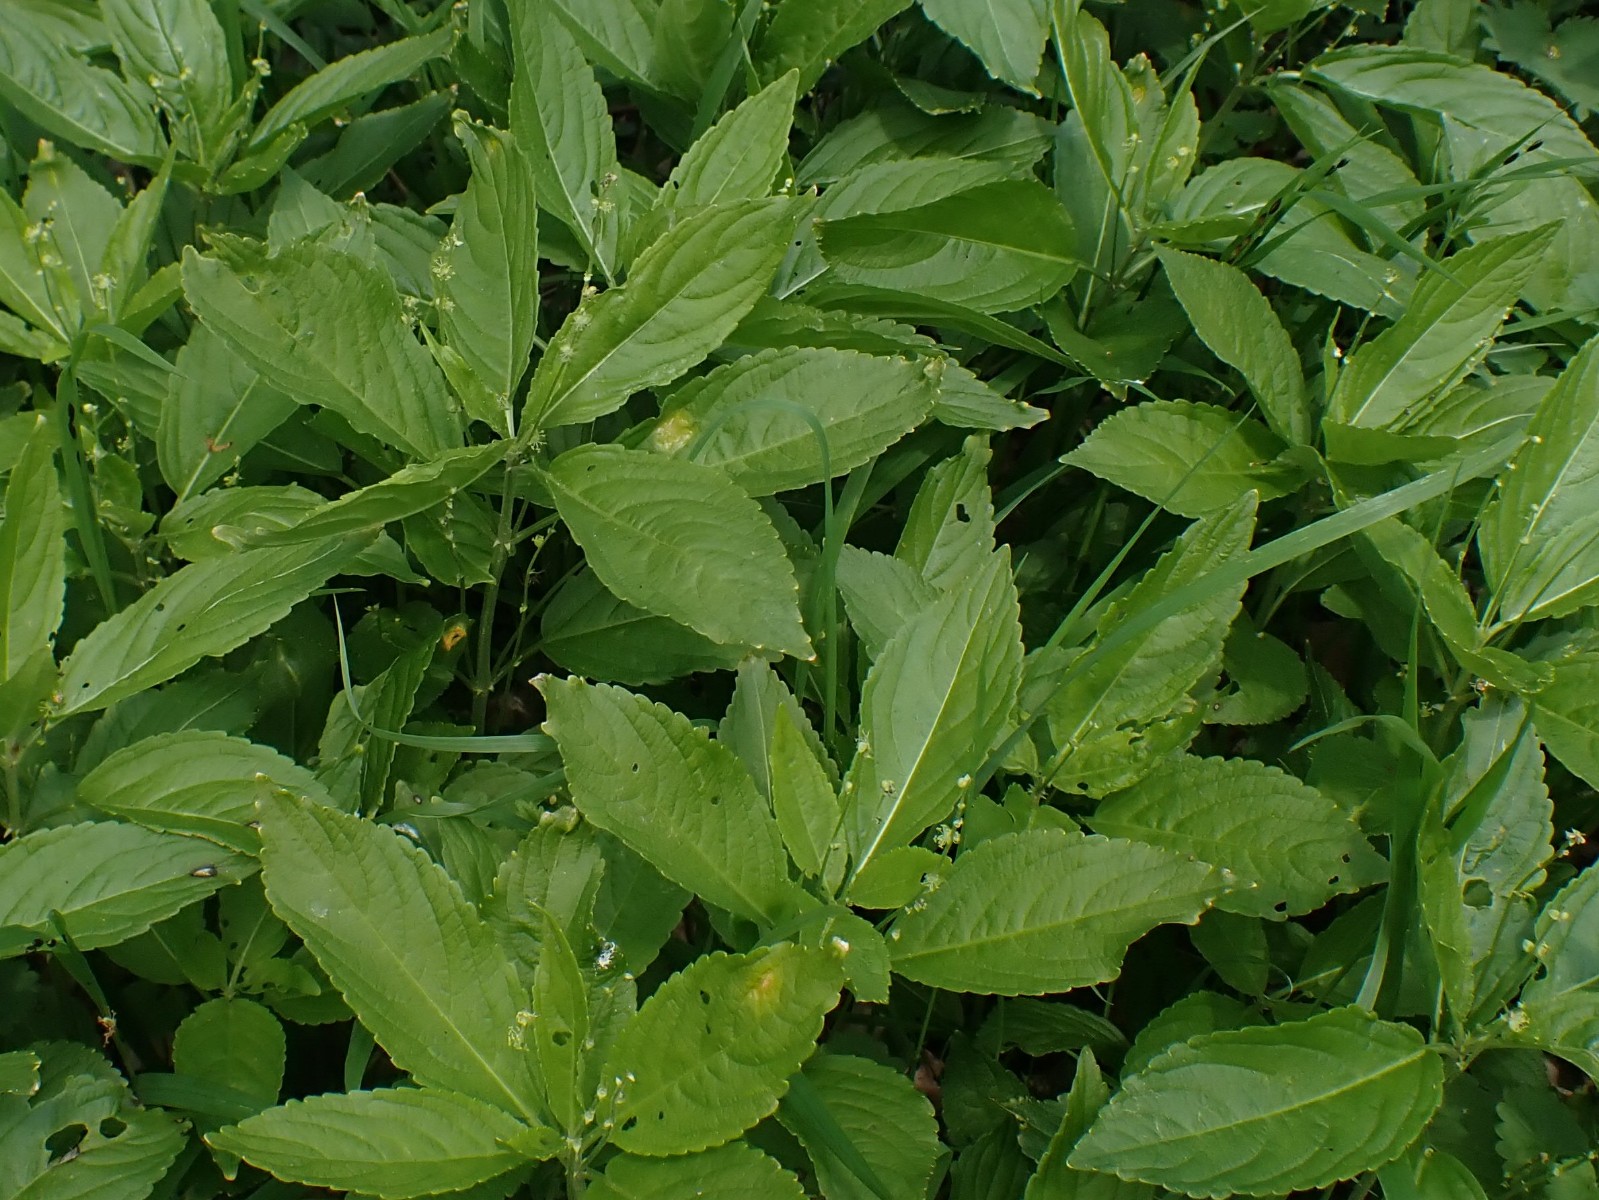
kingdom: Fungi
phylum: Basidiomycota
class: Pucciniomycetes
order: Pucciniales
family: Melampsoraceae
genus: Melampsora
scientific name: Melampsora populnea
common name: poppel-skorperust
